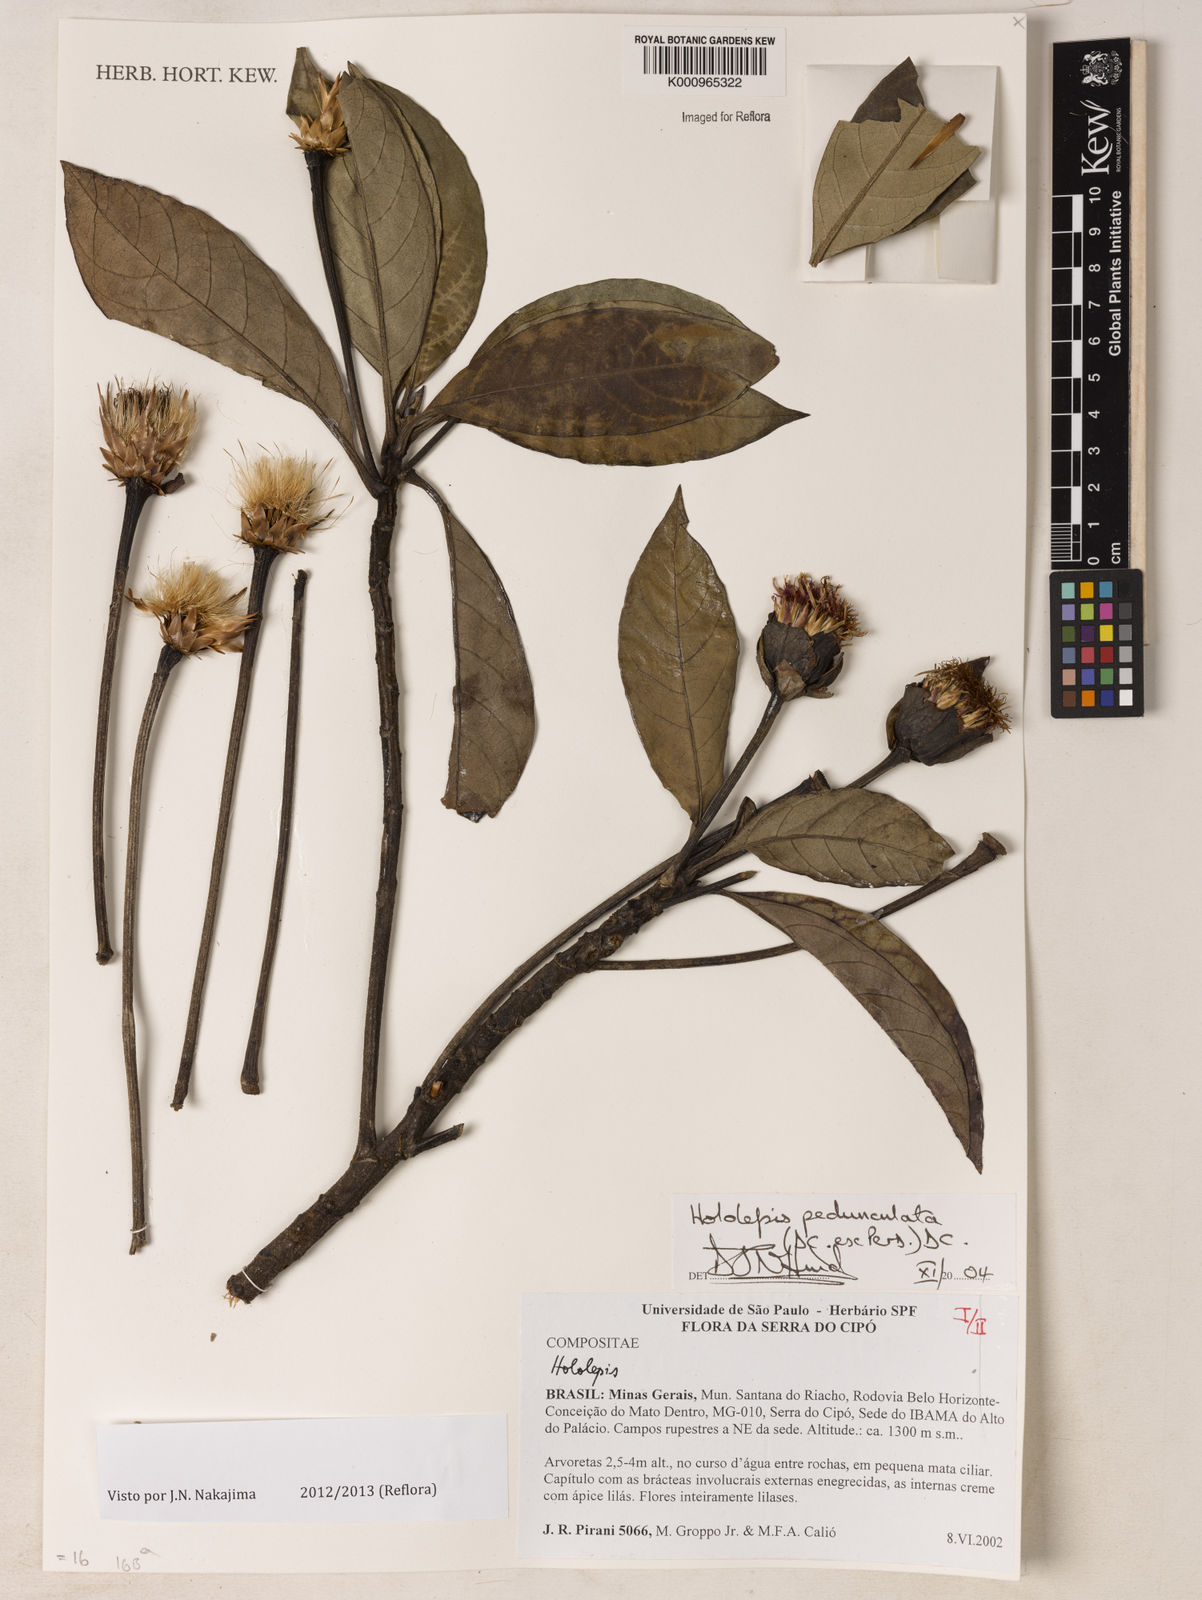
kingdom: Plantae
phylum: Tracheophyta
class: Magnoliopsida
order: Asterales
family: Asteraceae
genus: Hololepis
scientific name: Hololepis pedunculata
